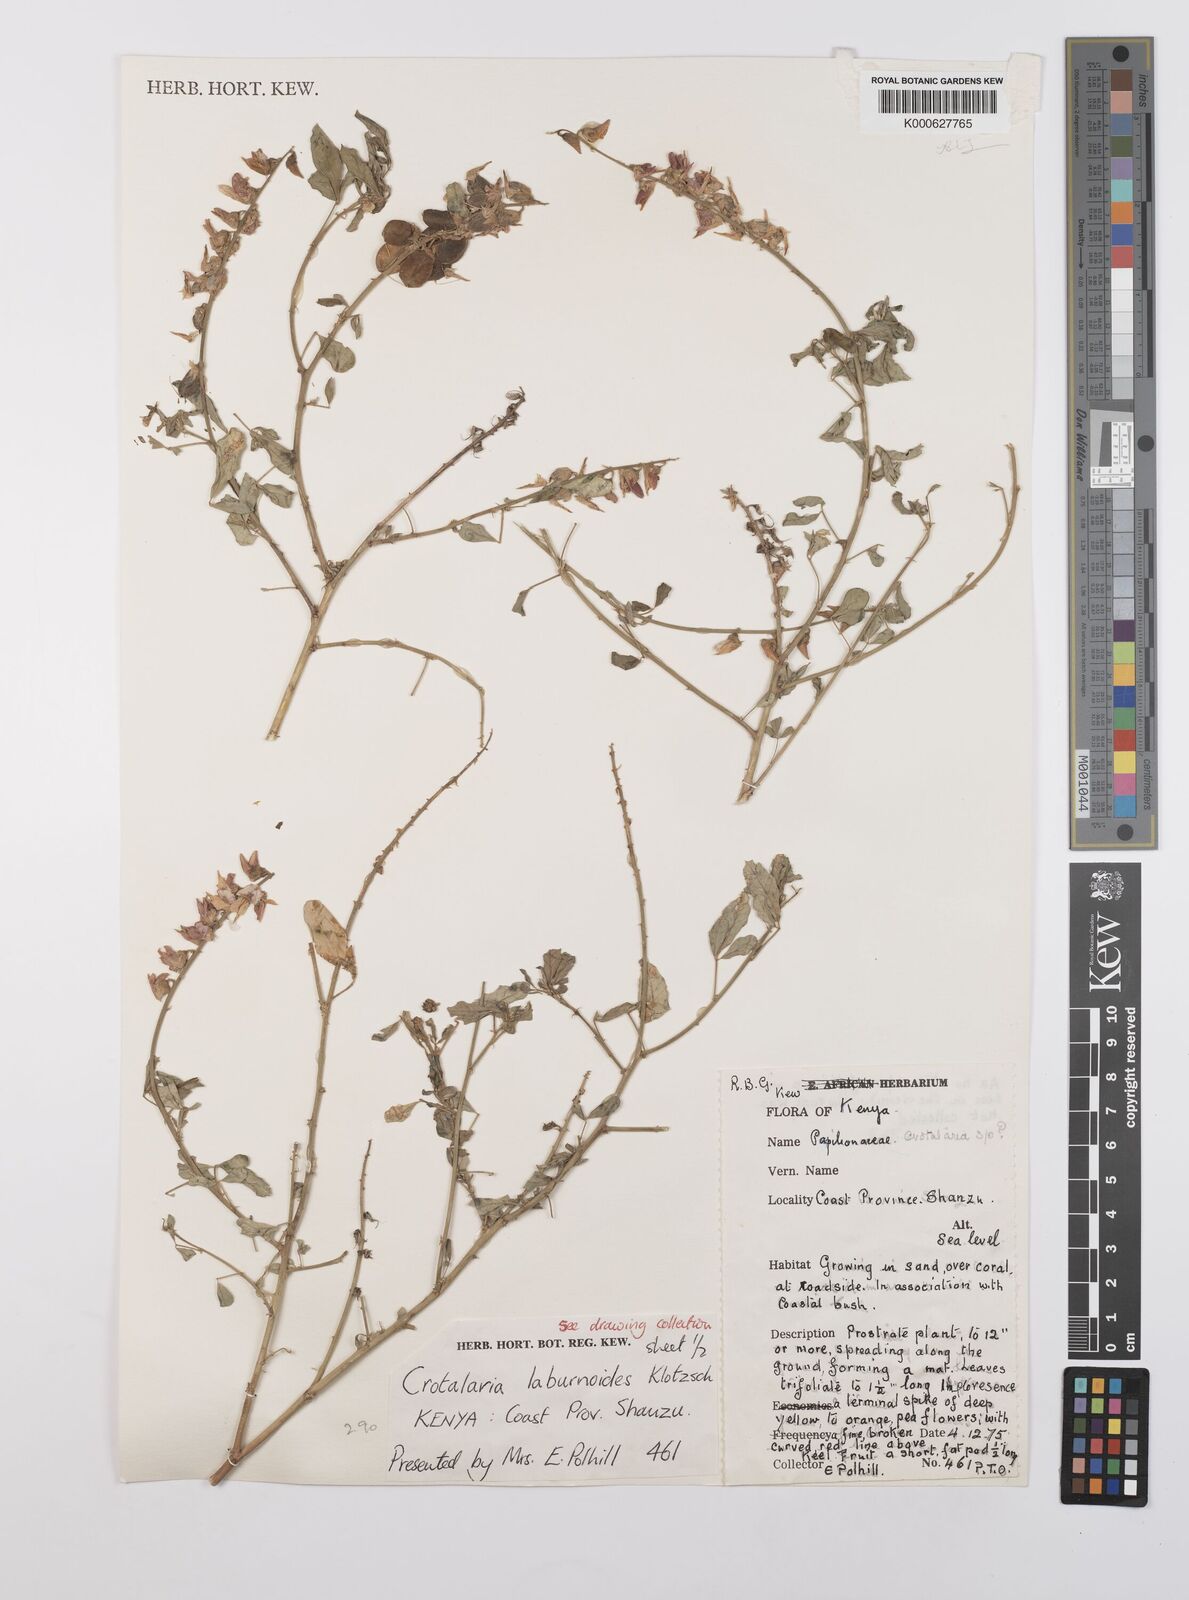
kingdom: Plantae
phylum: Tracheophyta
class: Magnoliopsida
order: Fabales
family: Fabaceae
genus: Crotalaria
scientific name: Crotalaria laburnoides
